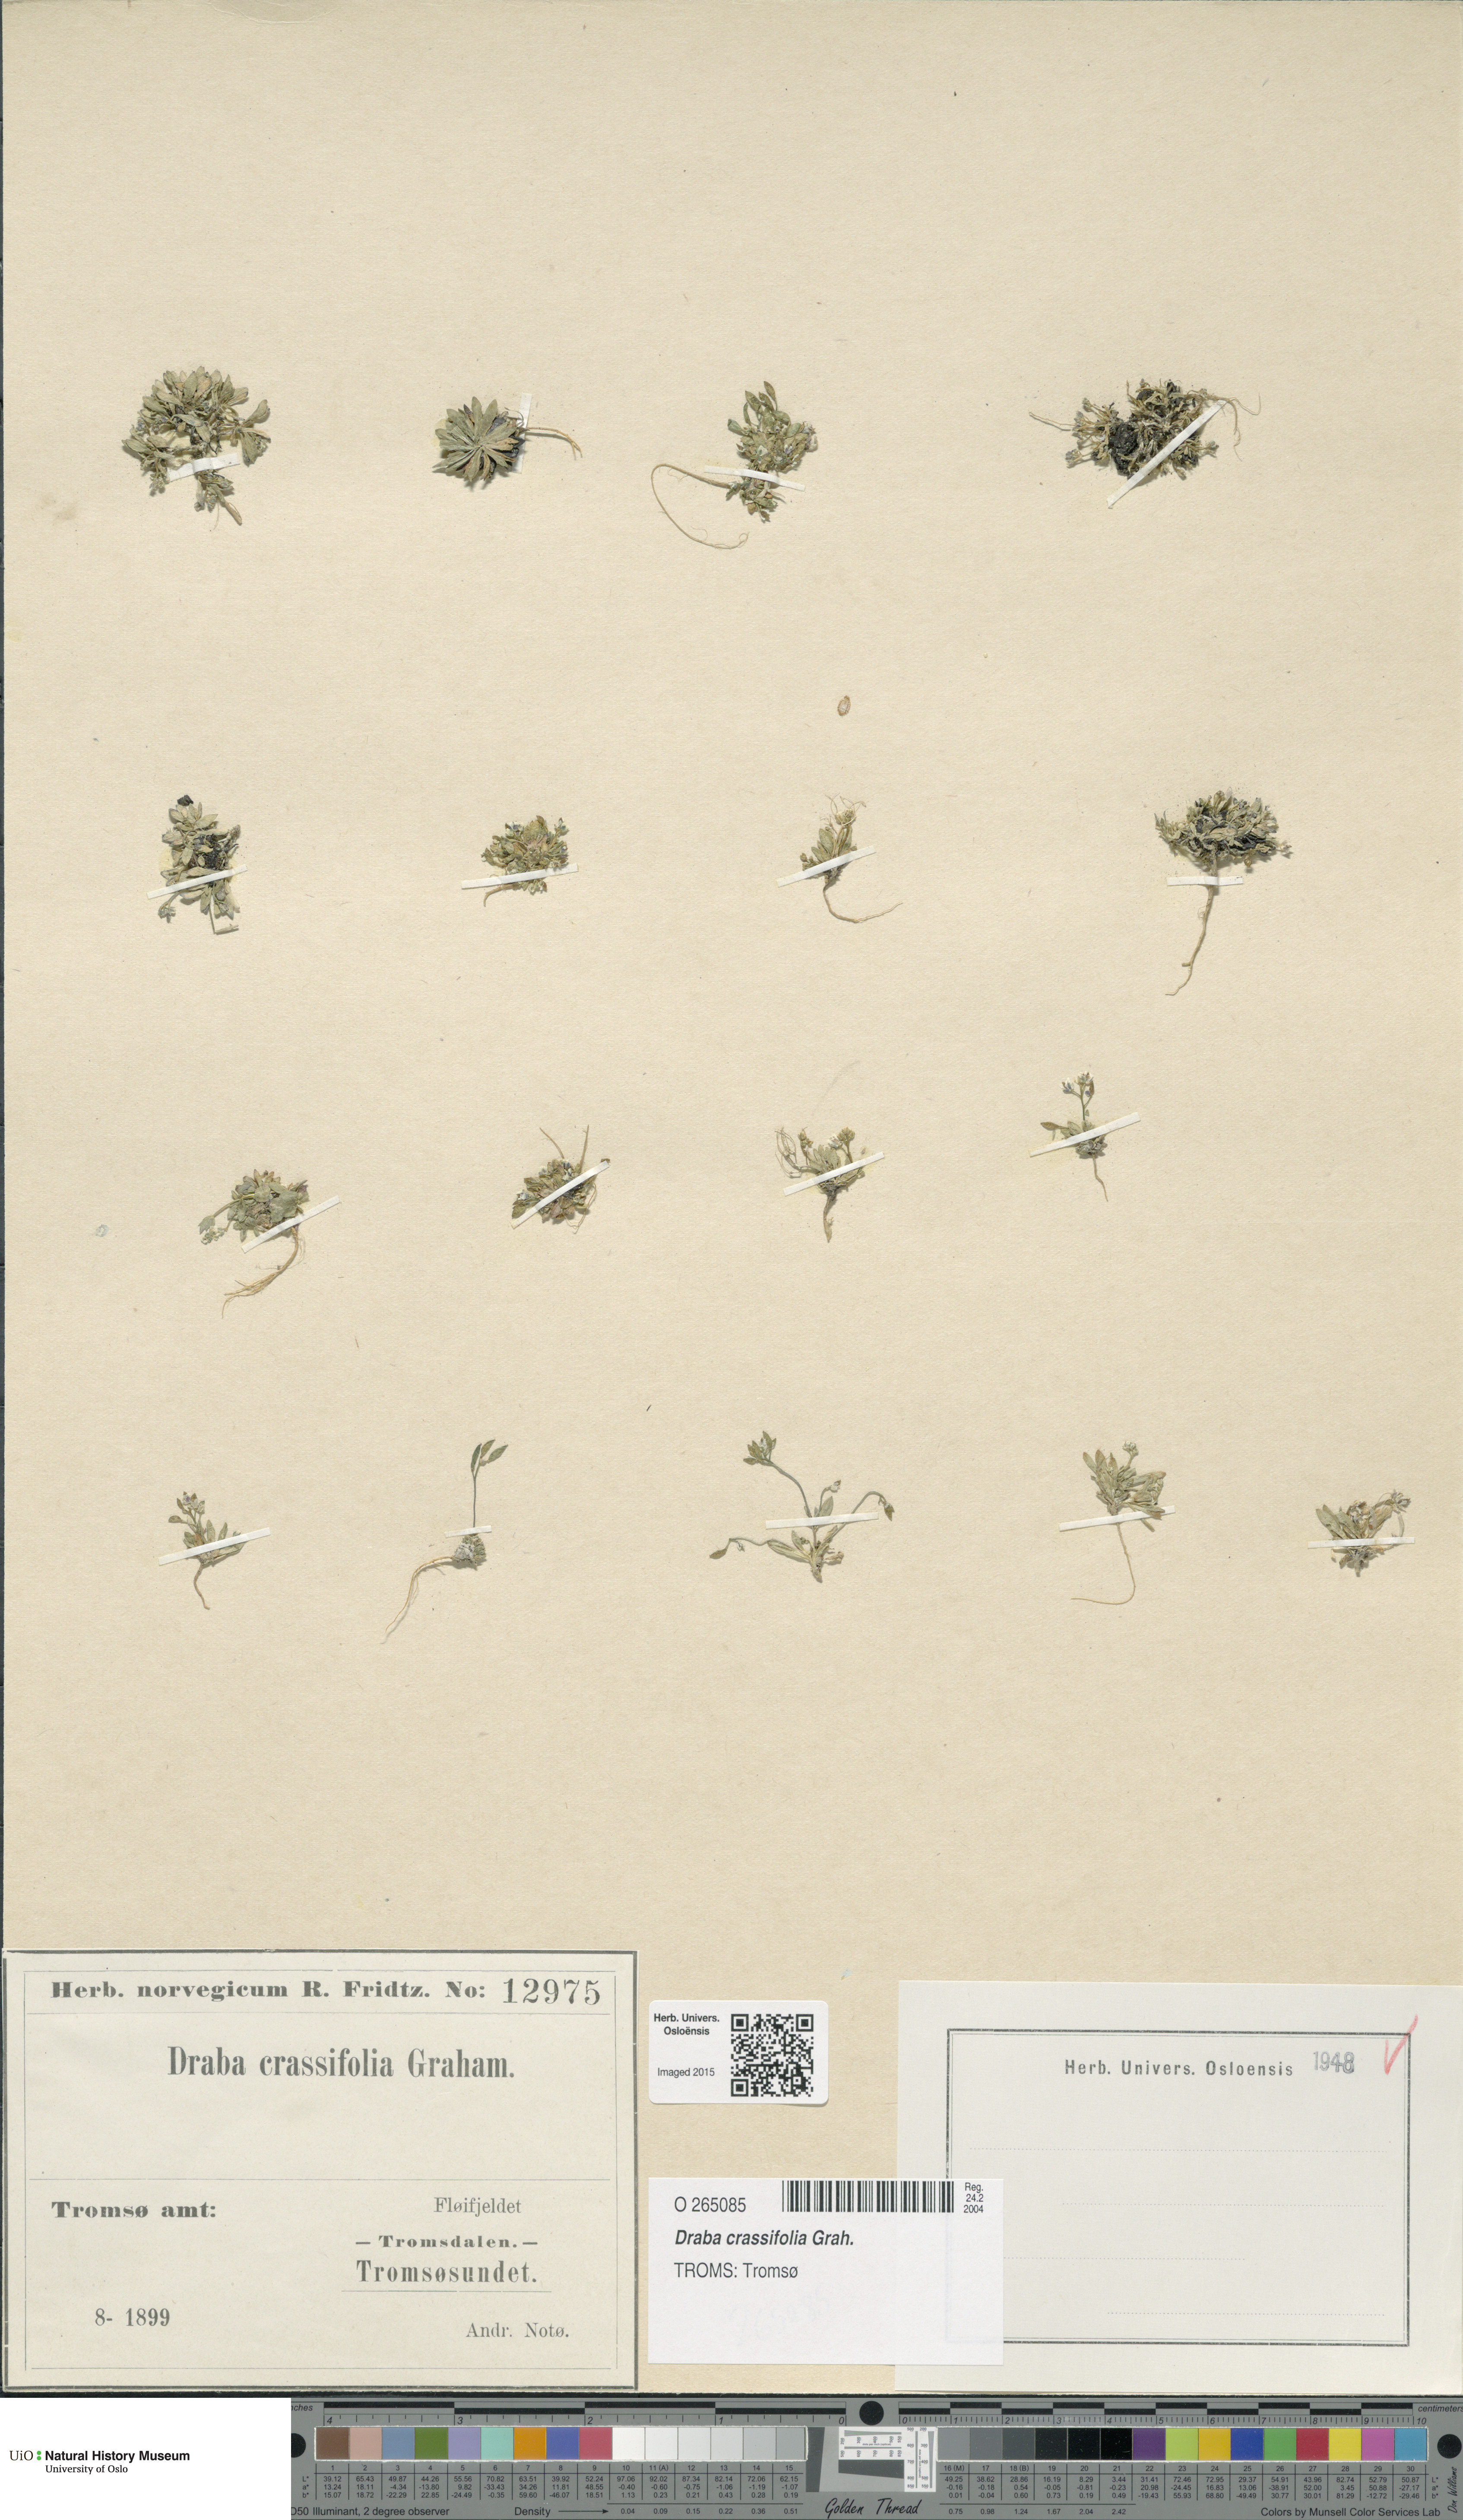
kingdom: Plantae
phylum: Tracheophyta
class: Magnoliopsida
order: Brassicales
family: Brassicaceae
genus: Draba
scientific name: Draba crassifolia
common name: Rocky mountain draba
